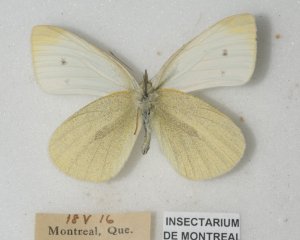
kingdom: Animalia
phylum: Arthropoda
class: Insecta
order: Lepidoptera
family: Pieridae
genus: Pieris
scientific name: Pieris rapae
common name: Cabbage White
